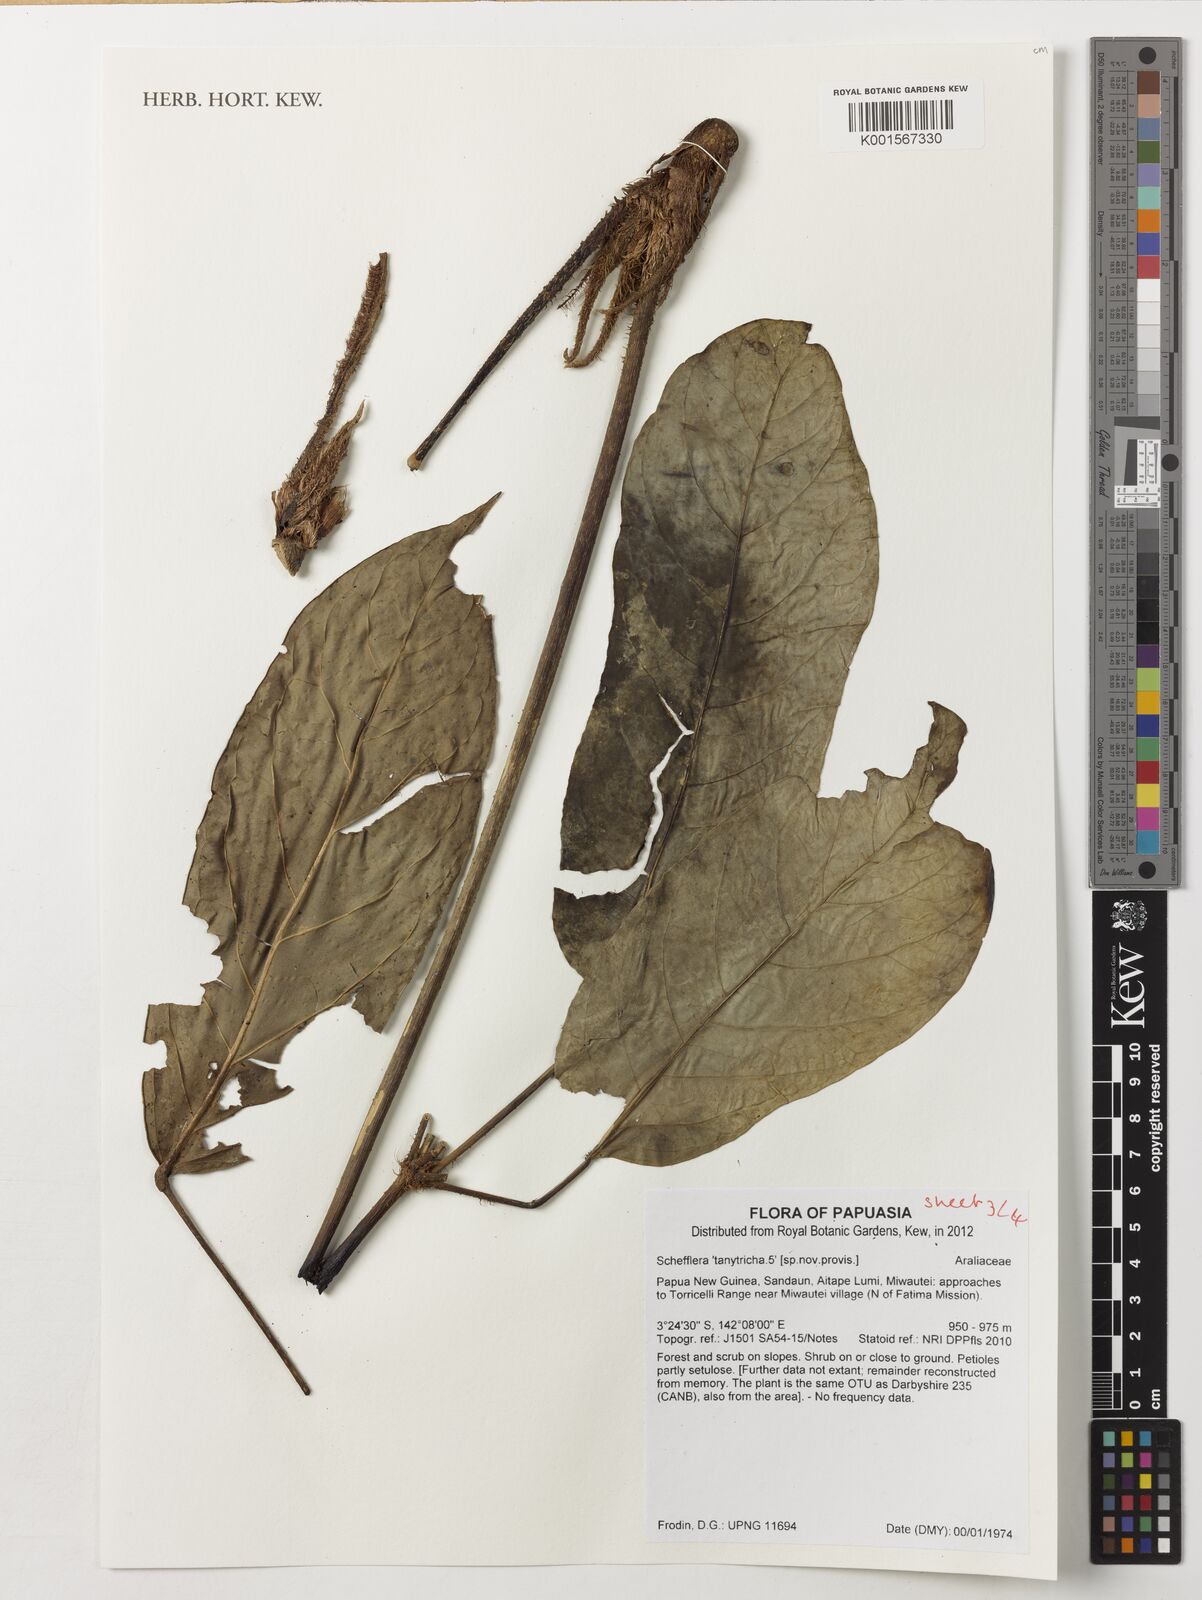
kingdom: Plantae
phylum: Tracheophyta
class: Magnoliopsida
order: Apiales
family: Araliaceae
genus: Heptapleurum
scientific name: Heptapleurum tanytrichum
